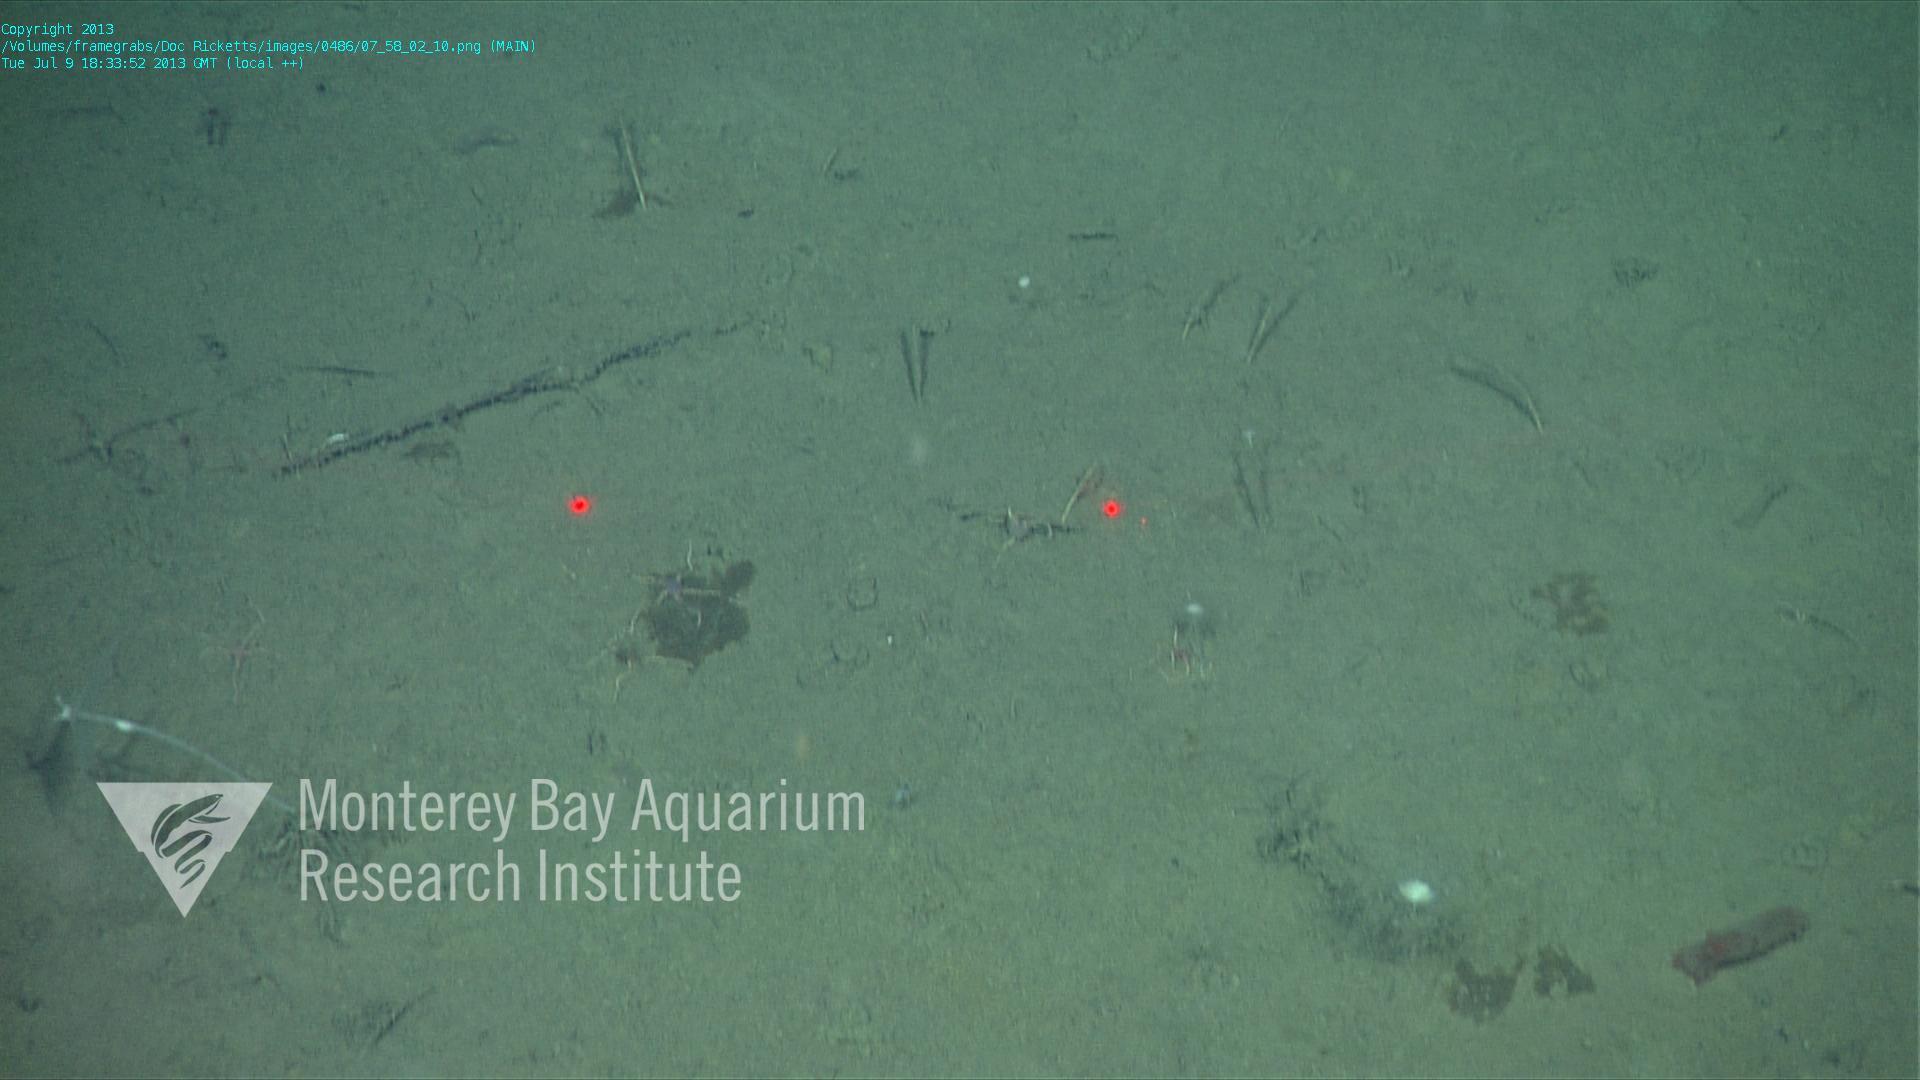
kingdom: Animalia
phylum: Porifera
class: Demospongiae
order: Poecilosclerida
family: Cladorhizidae
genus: Cladorhiza
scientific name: Cladorhiza
